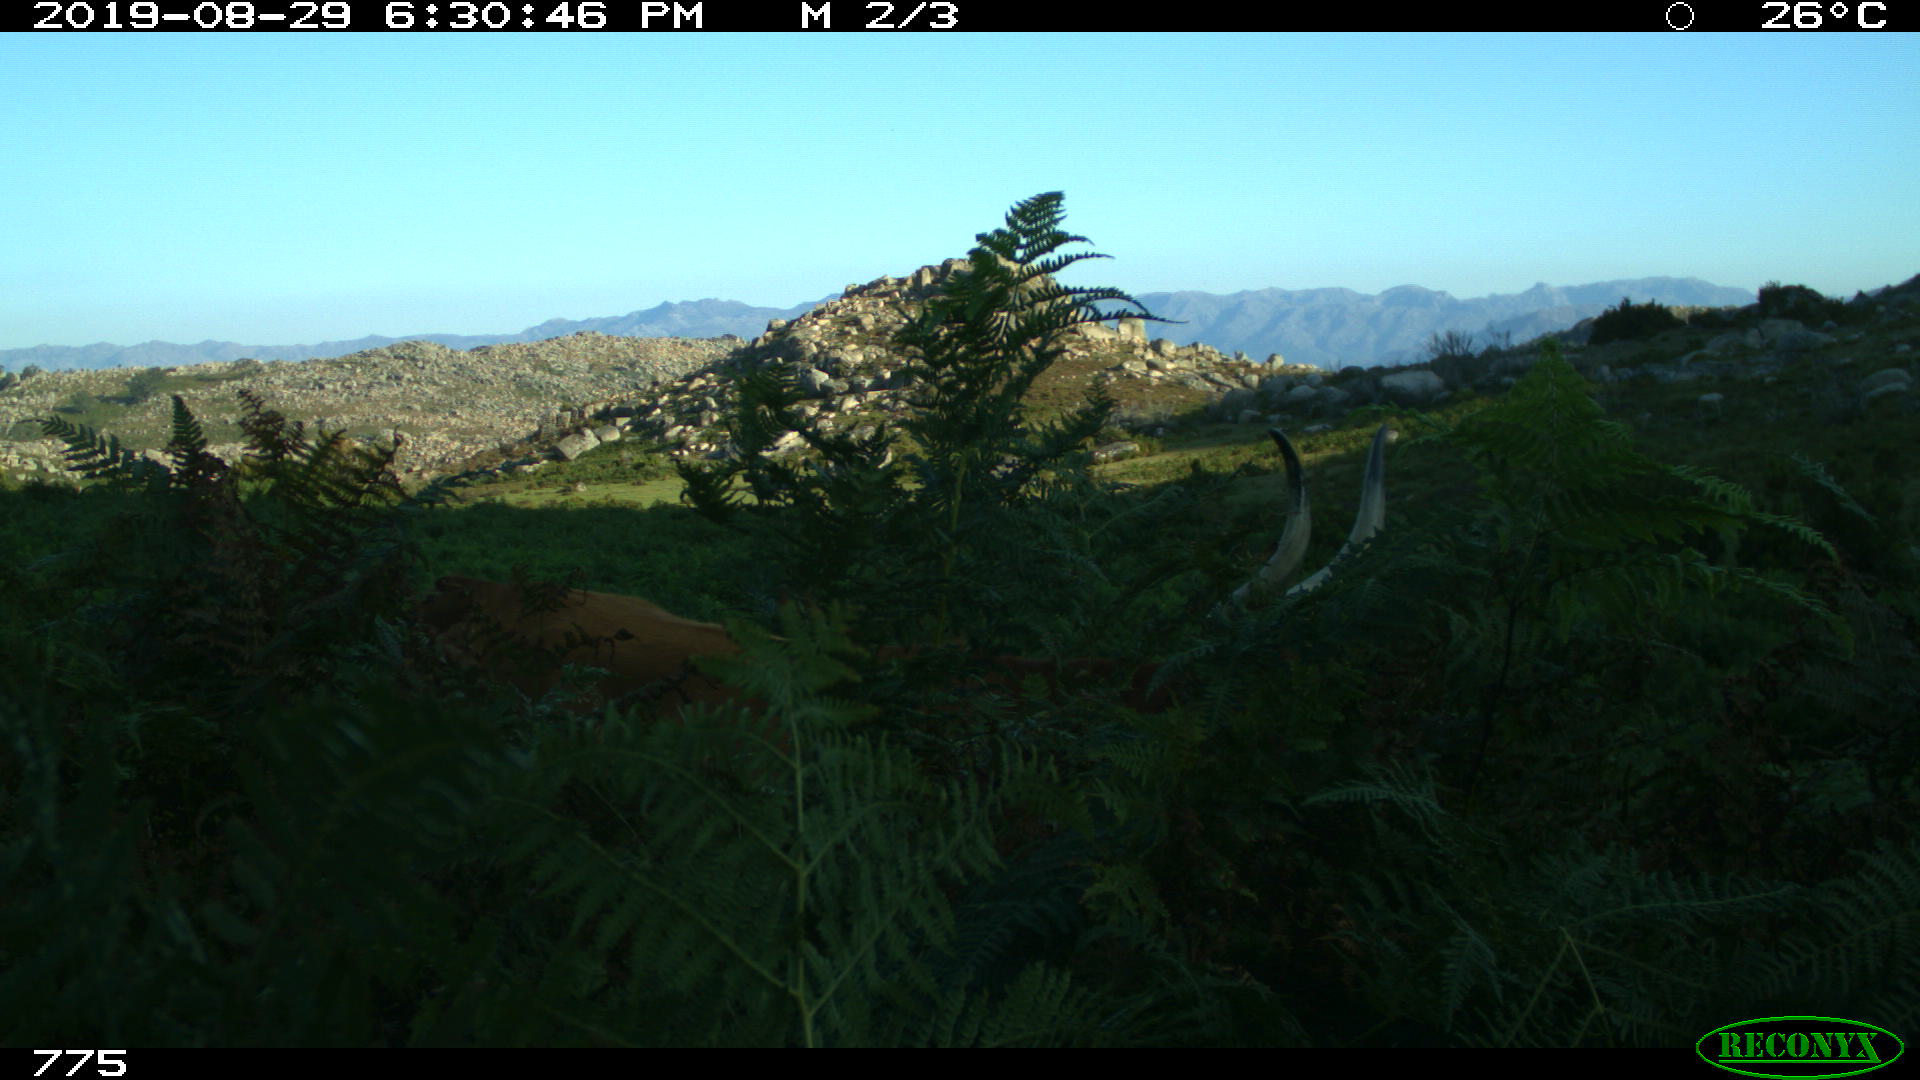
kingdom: Animalia
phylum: Chordata
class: Mammalia
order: Artiodactyla
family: Bovidae
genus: Bos
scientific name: Bos taurus
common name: Domesticated cattle
